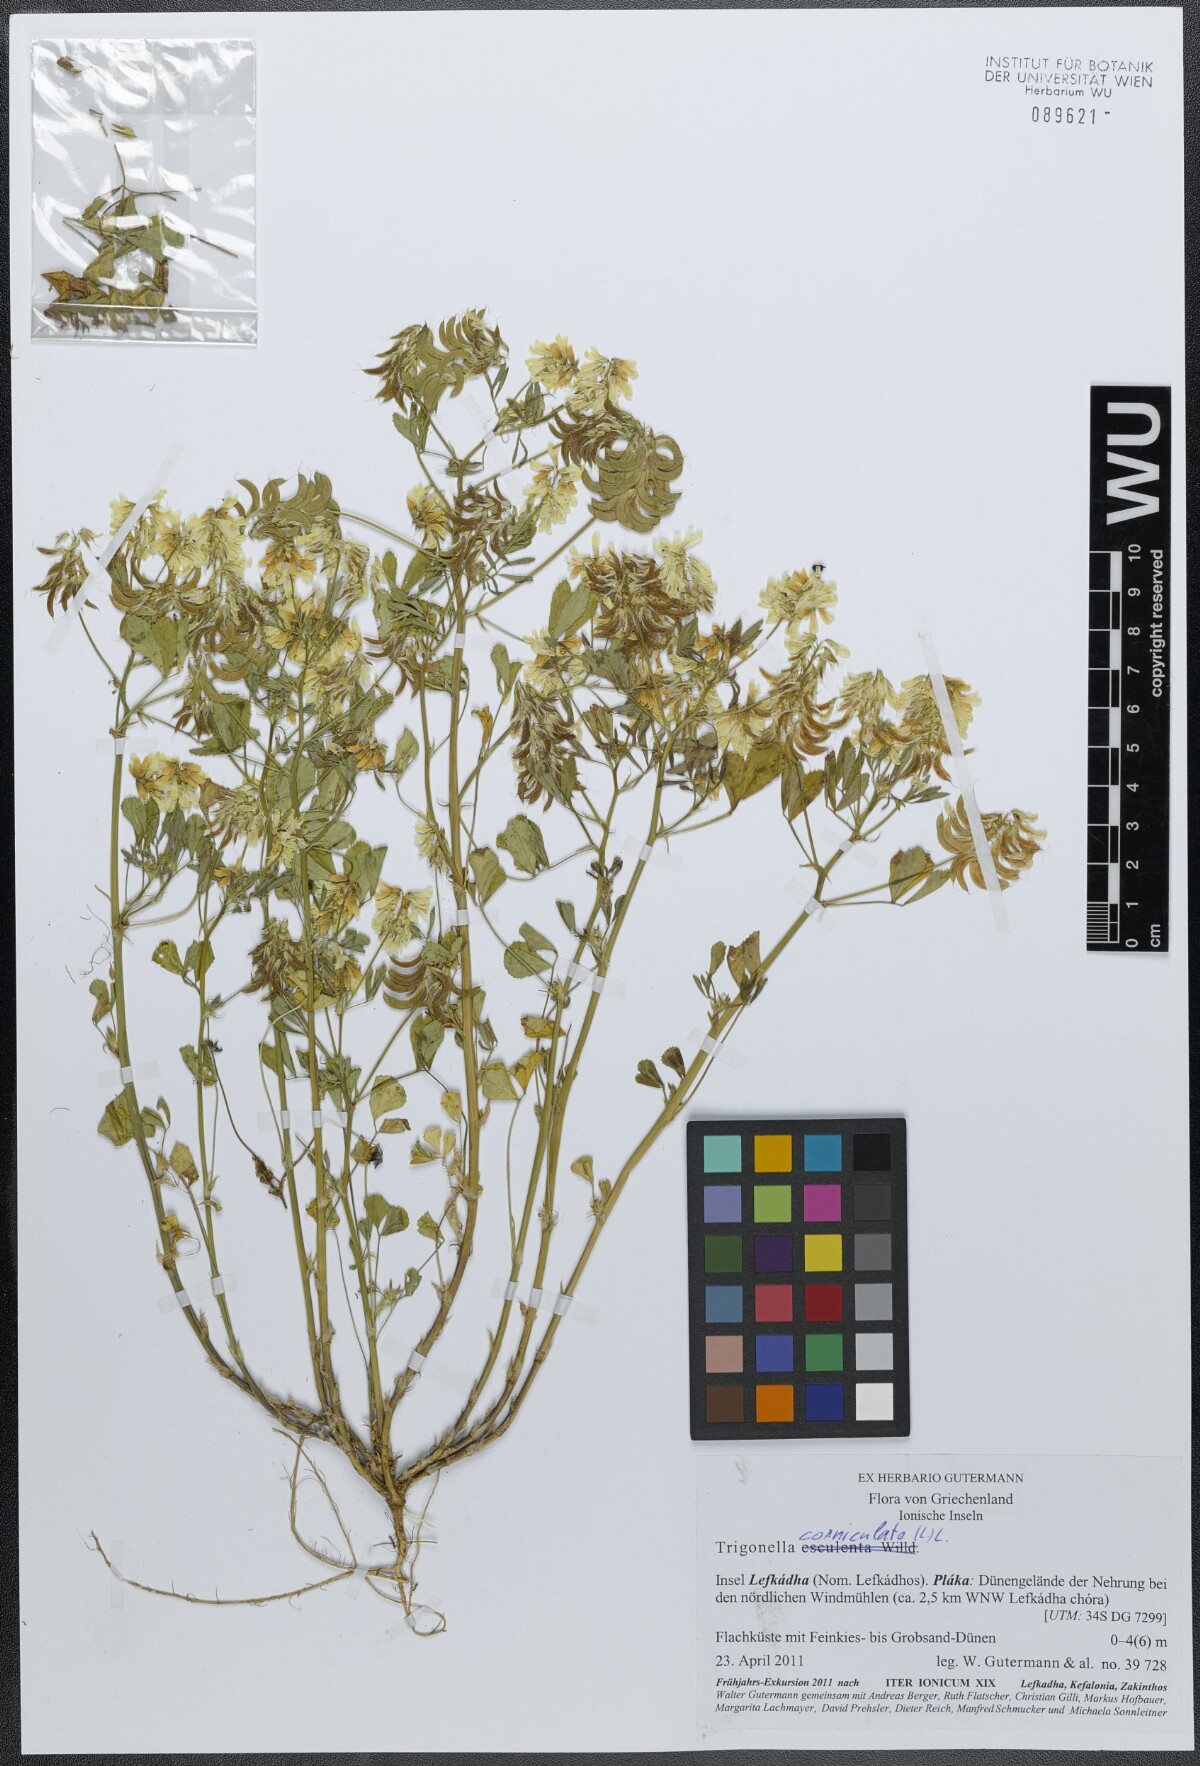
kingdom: Plantae
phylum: Tracheophyta
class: Magnoliopsida
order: Fabales
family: Fabaceae
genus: Trigonella
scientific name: Trigonella balansae
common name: Sickle-fruited fenugreek
